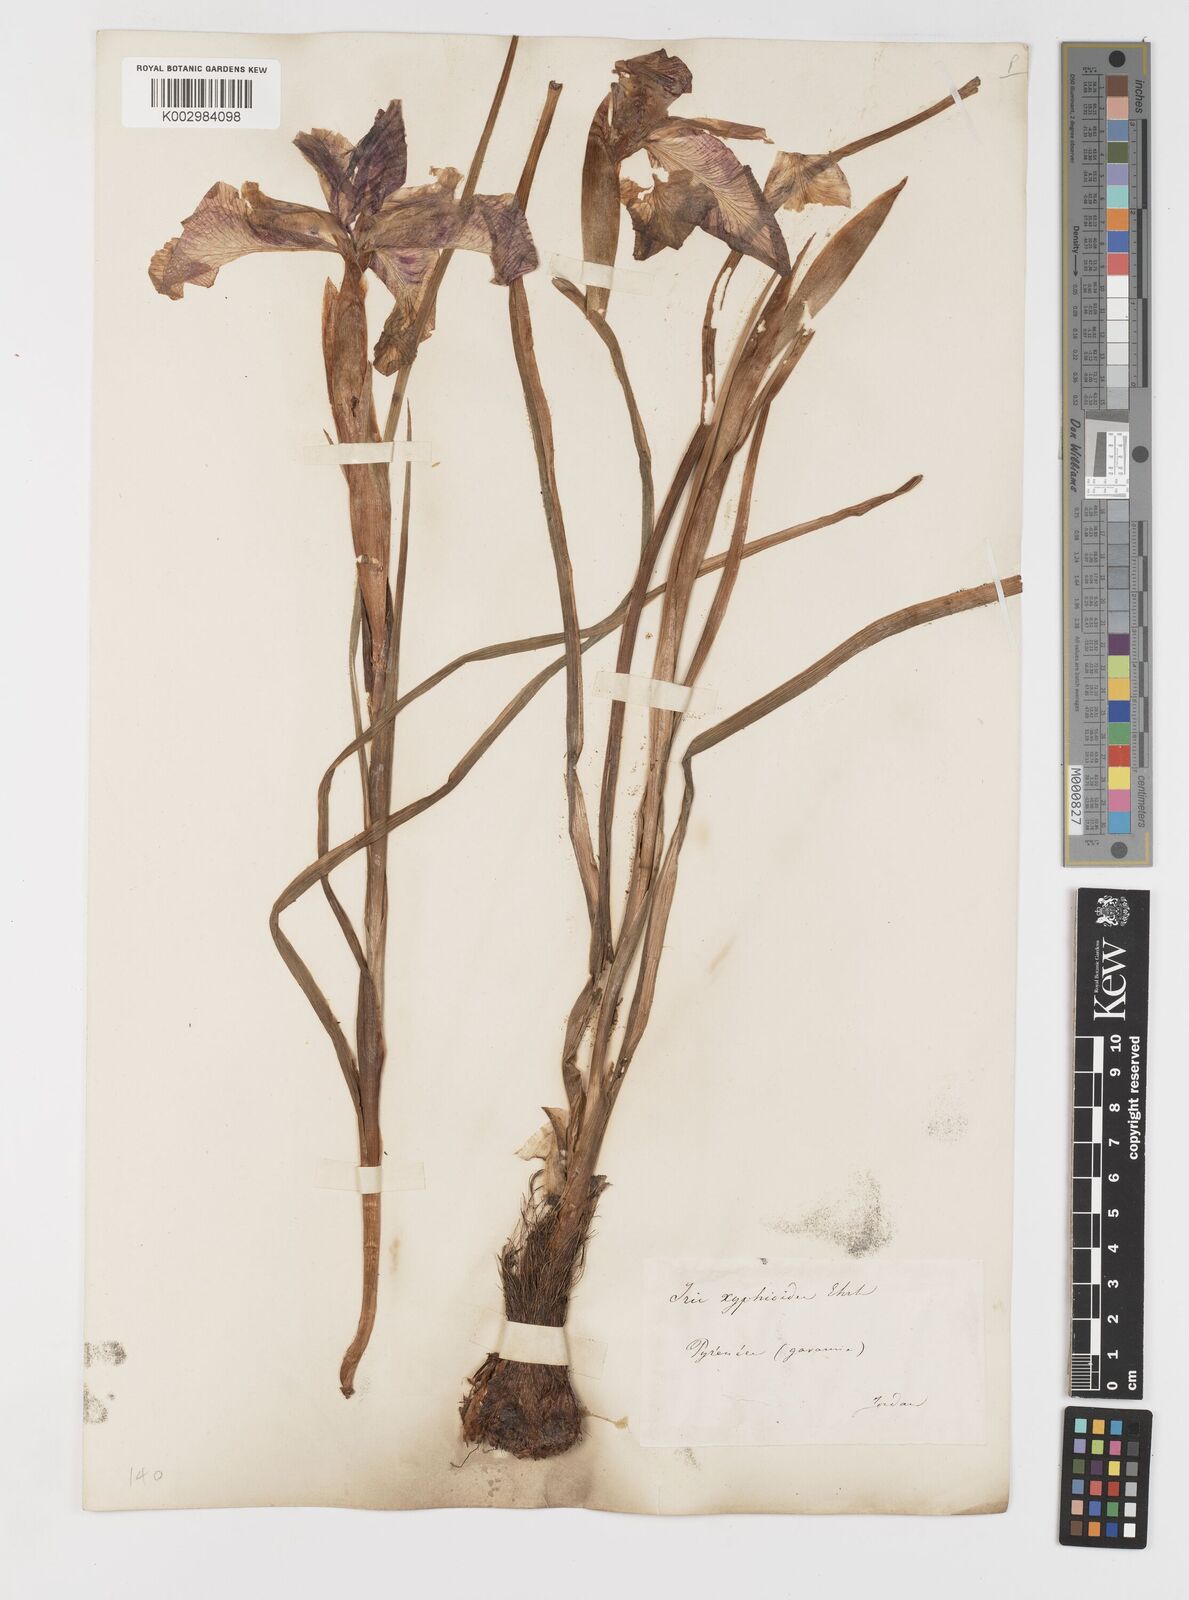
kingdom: Plantae
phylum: Tracheophyta
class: Liliopsida
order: Asparagales
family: Iridaceae
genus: Iris
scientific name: Iris jacquinii
